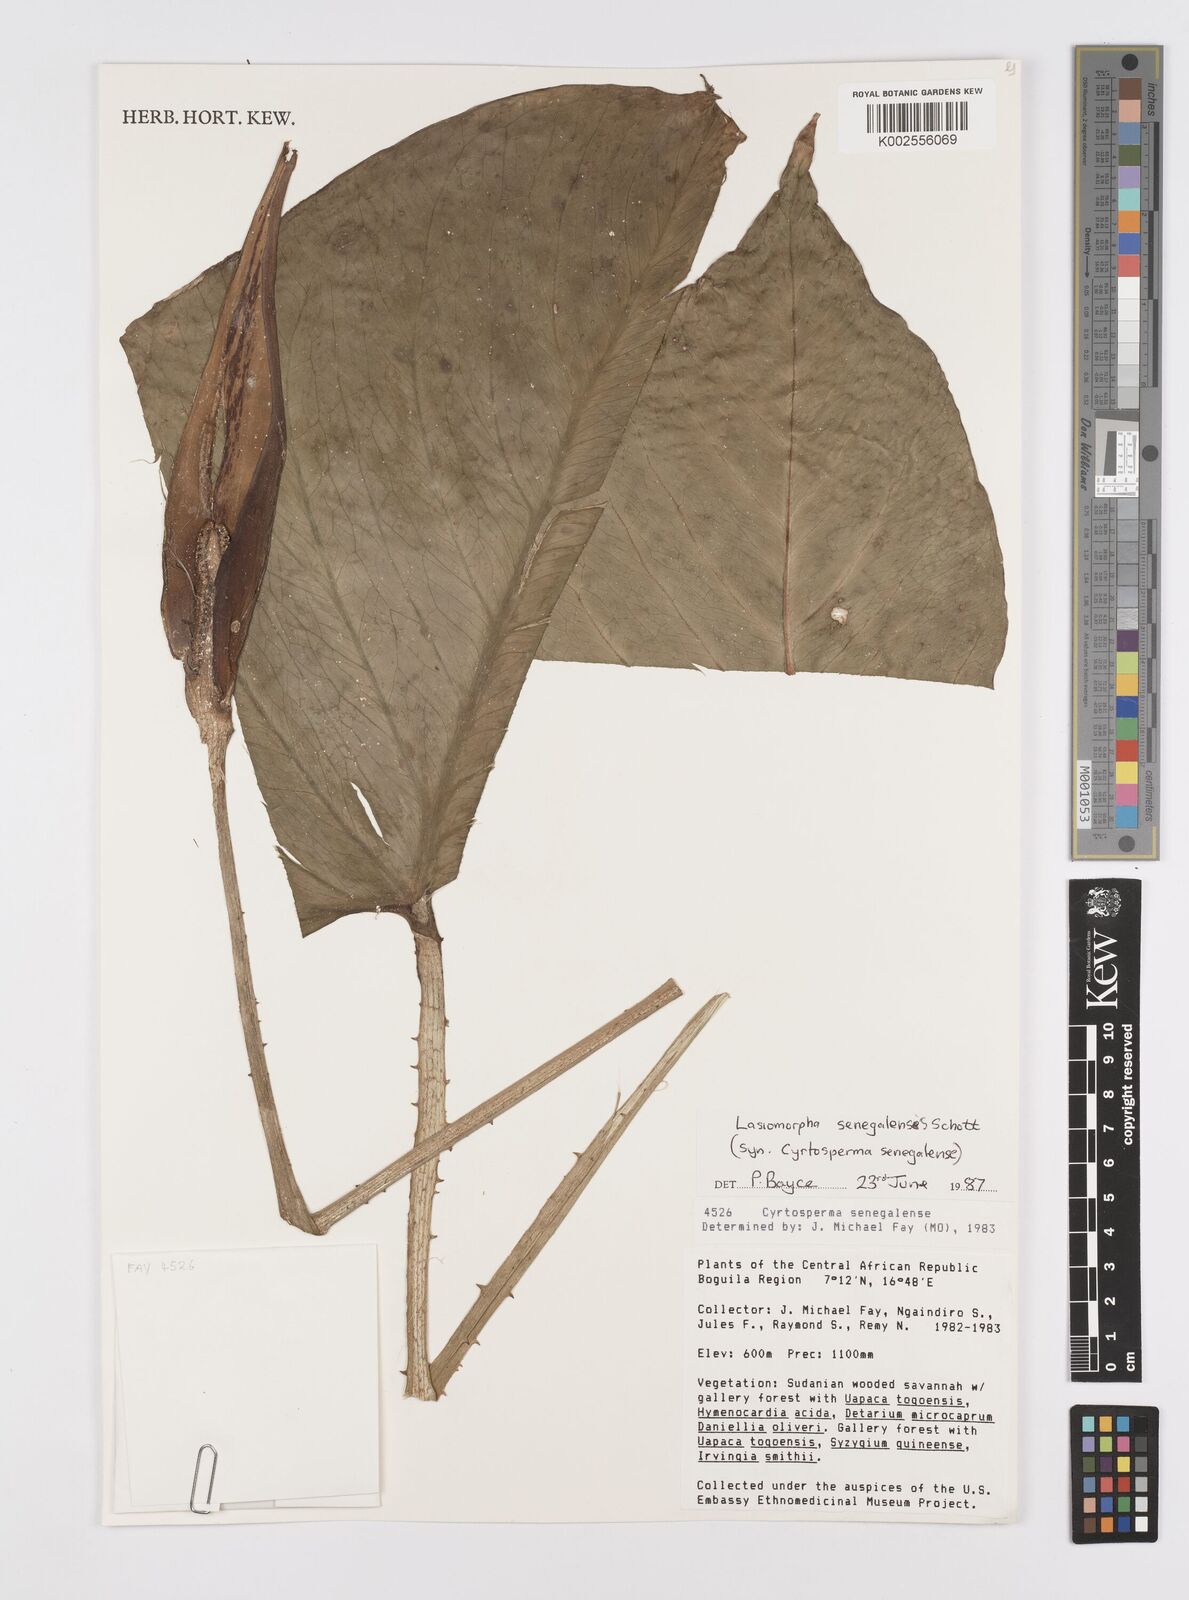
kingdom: Plantae
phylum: Tracheophyta
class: Liliopsida
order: Alismatales
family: Araceae
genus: Lasimorpha
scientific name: Lasimorpha senegalensis
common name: Swamp arum
